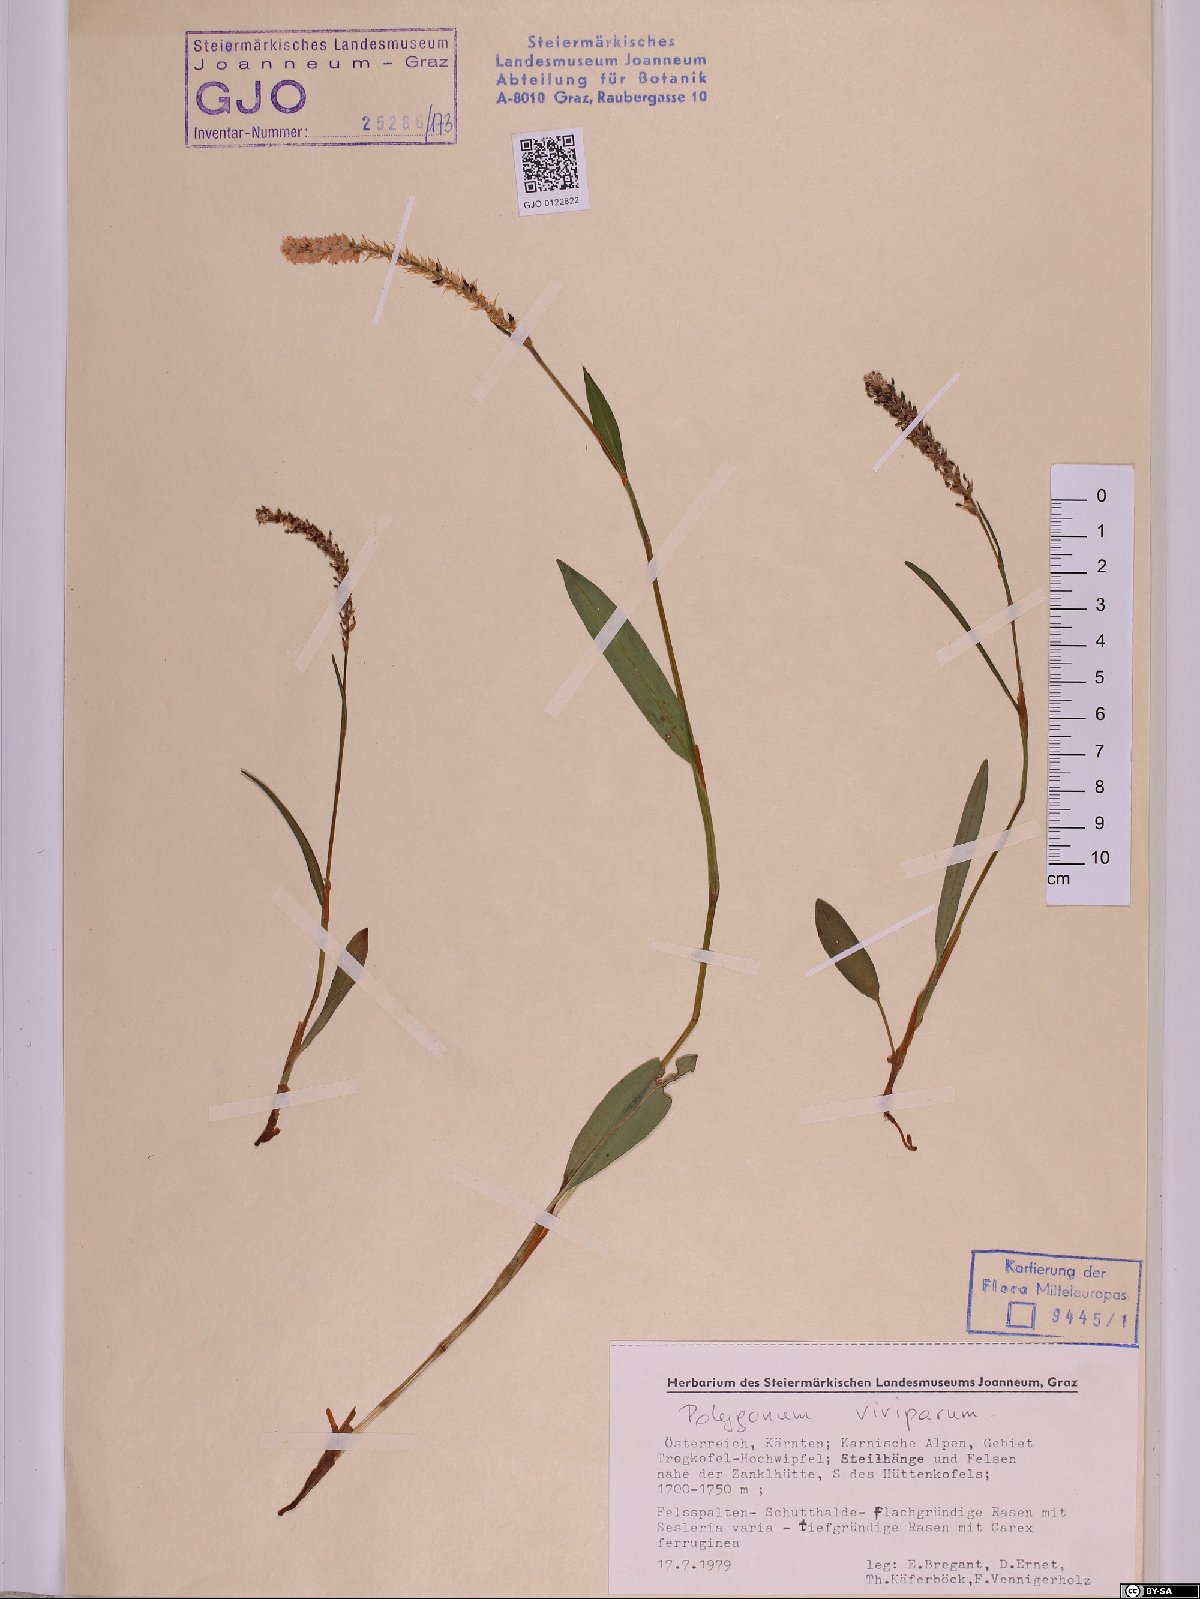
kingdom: Plantae
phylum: Tracheophyta
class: Magnoliopsida
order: Caryophyllales
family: Polygonaceae
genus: Bistorta
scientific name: Bistorta vivipara
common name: Alpine bistort
